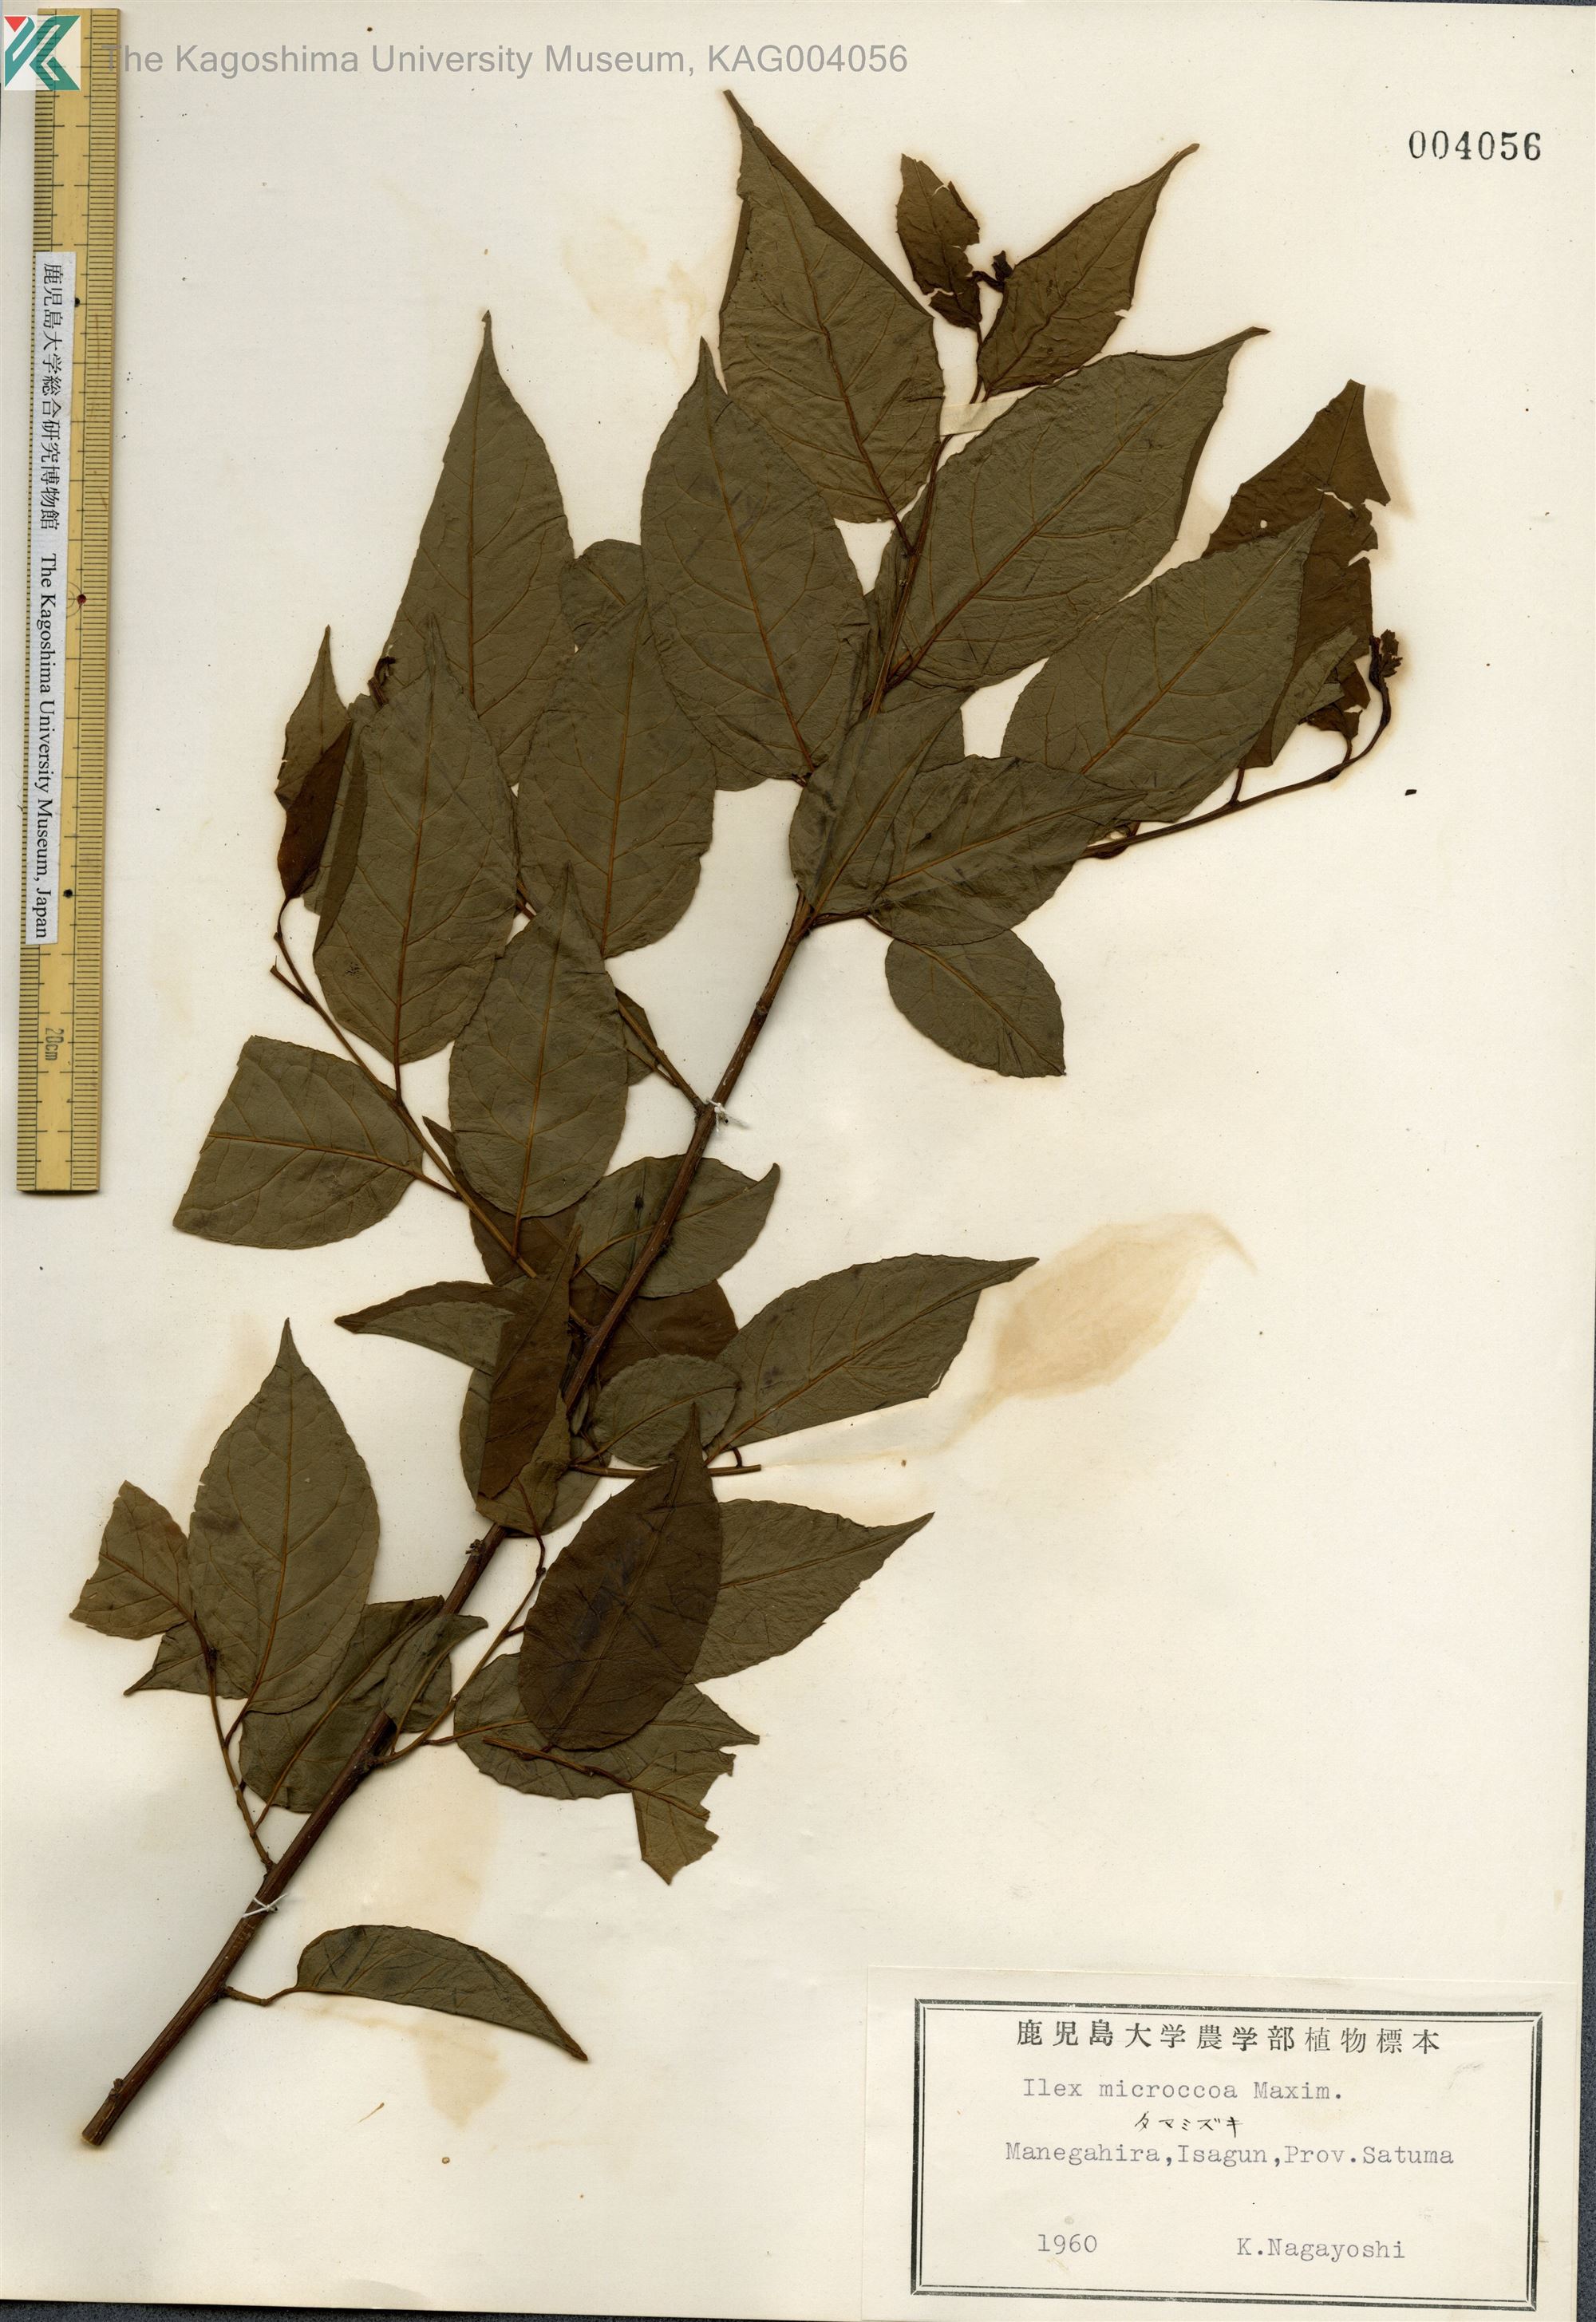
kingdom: Plantae
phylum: Tracheophyta
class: Magnoliopsida
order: Aquifoliales
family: Aquifoliaceae
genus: Ilex
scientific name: Ilex rotunda
